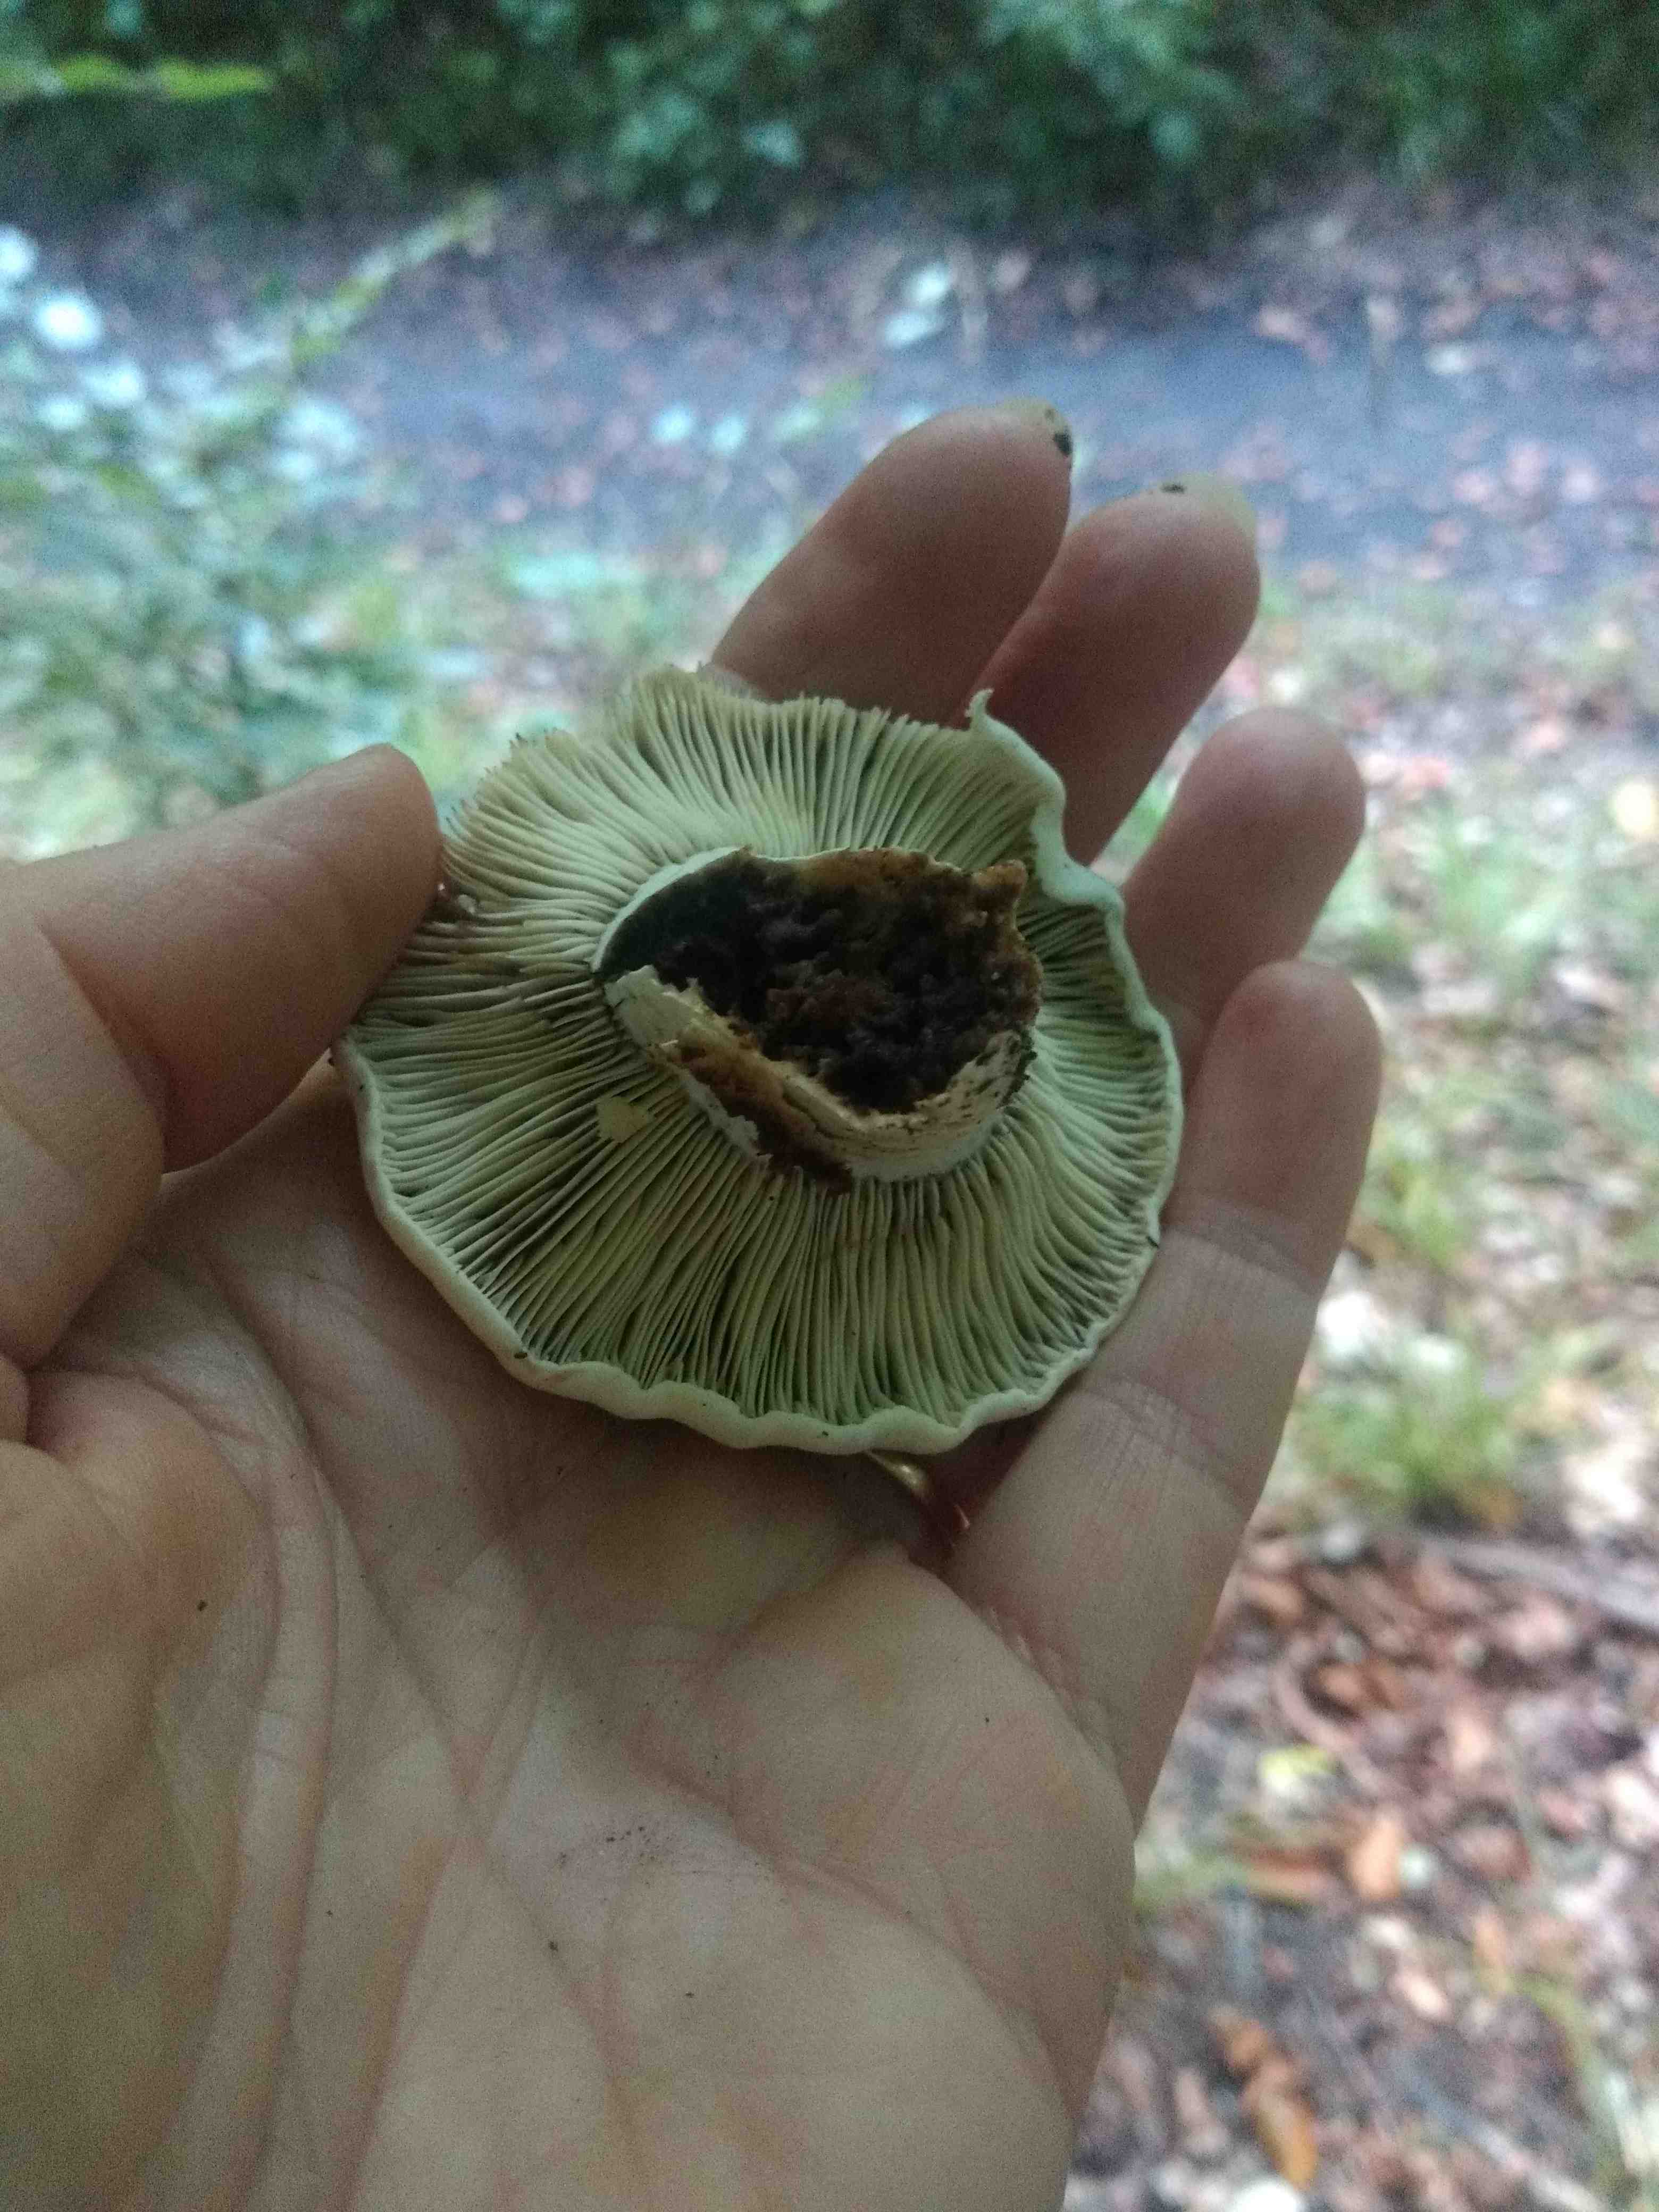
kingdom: Fungi
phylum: Basidiomycota
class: Agaricomycetes
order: Russulales
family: Russulaceae
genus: Russula
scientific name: Russula
